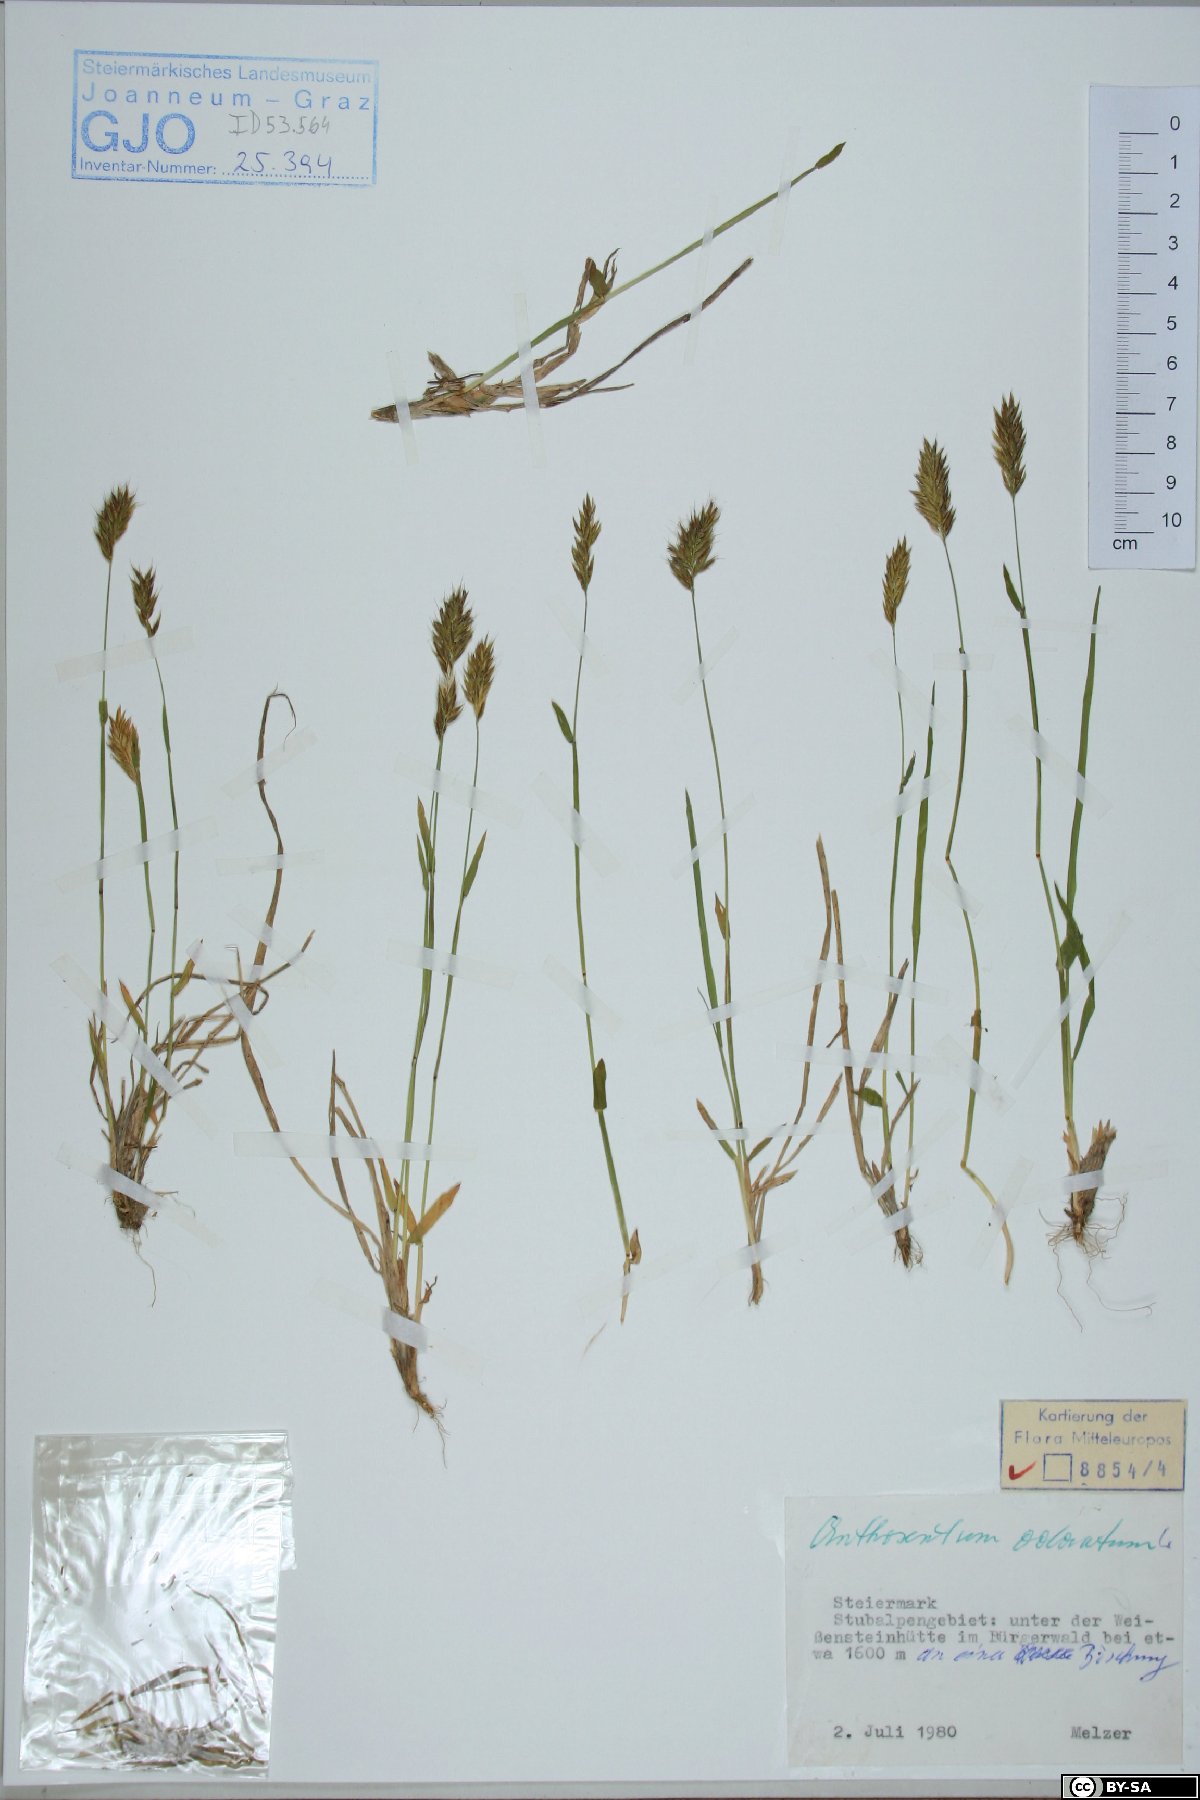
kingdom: Plantae
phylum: Tracheophyta
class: Liliopsida
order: Poales
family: Poaceae
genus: Anthoxanthum
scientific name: Anthoxanthum odoratum
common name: Sweet vernalgrass
